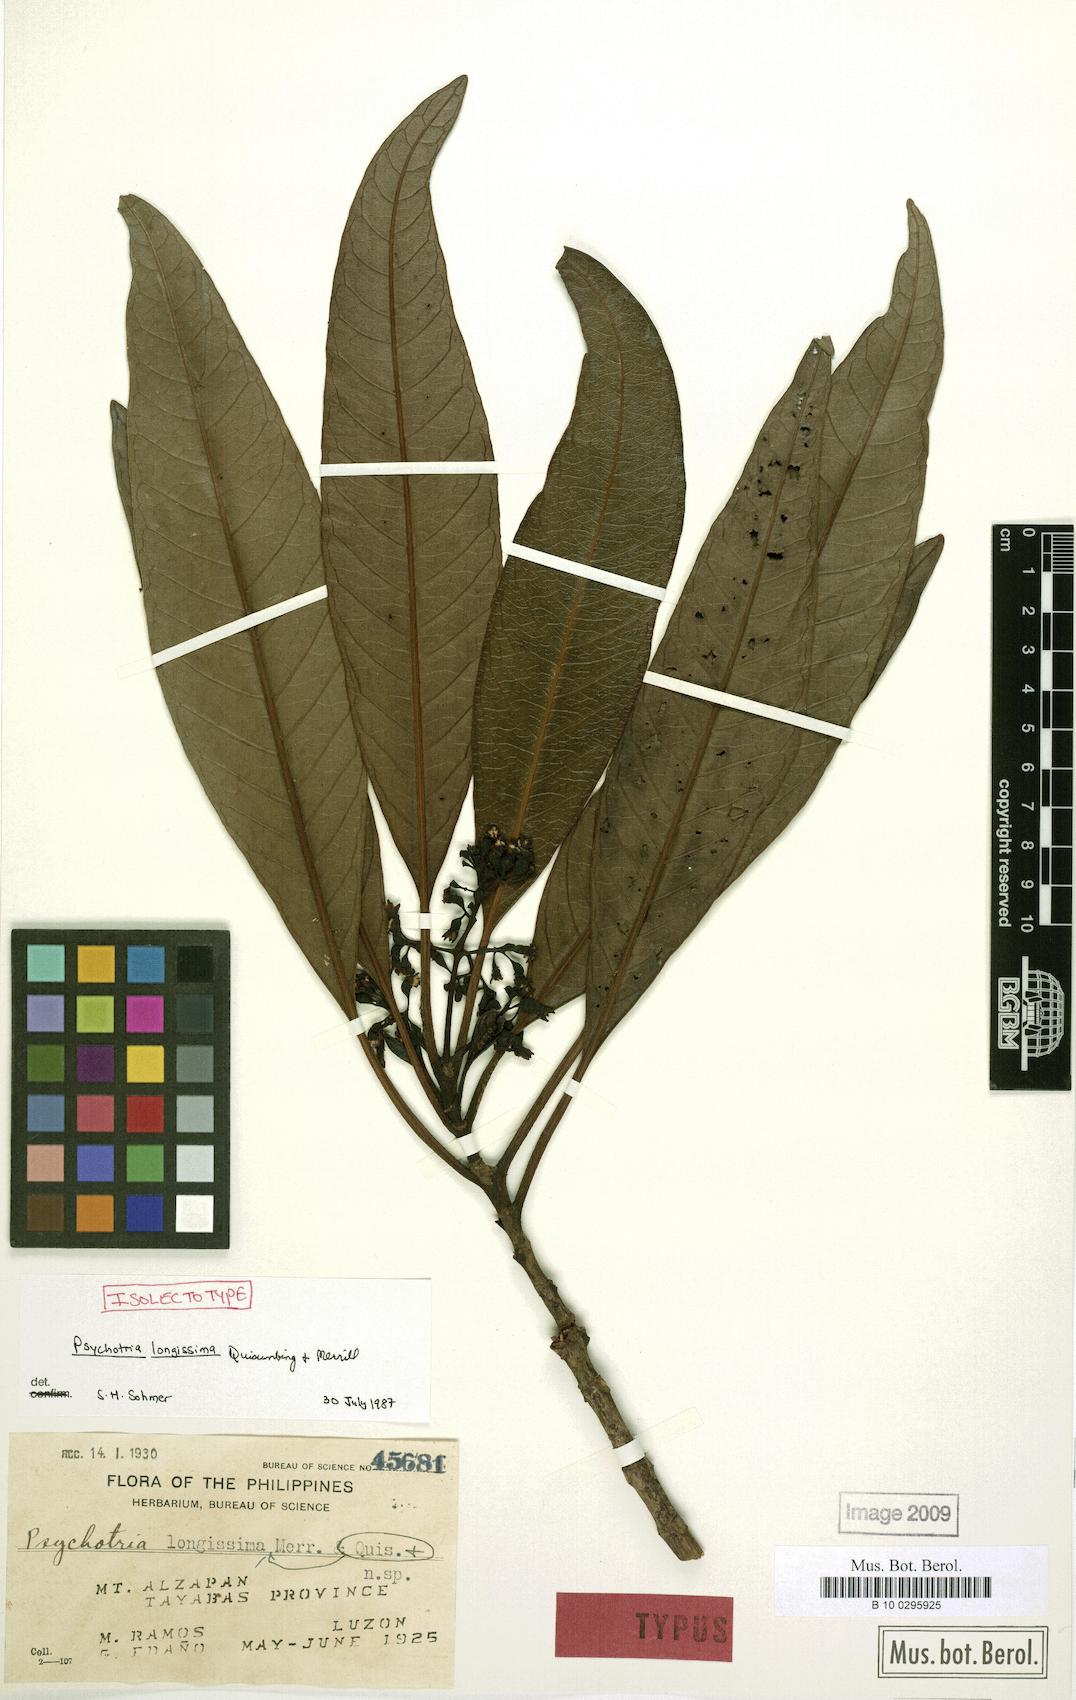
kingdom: Plantae
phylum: Tracheophyta
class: Magnoliopsida
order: Gentianales
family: Rubiaceae
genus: Psychotria
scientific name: Psychotria longissima
